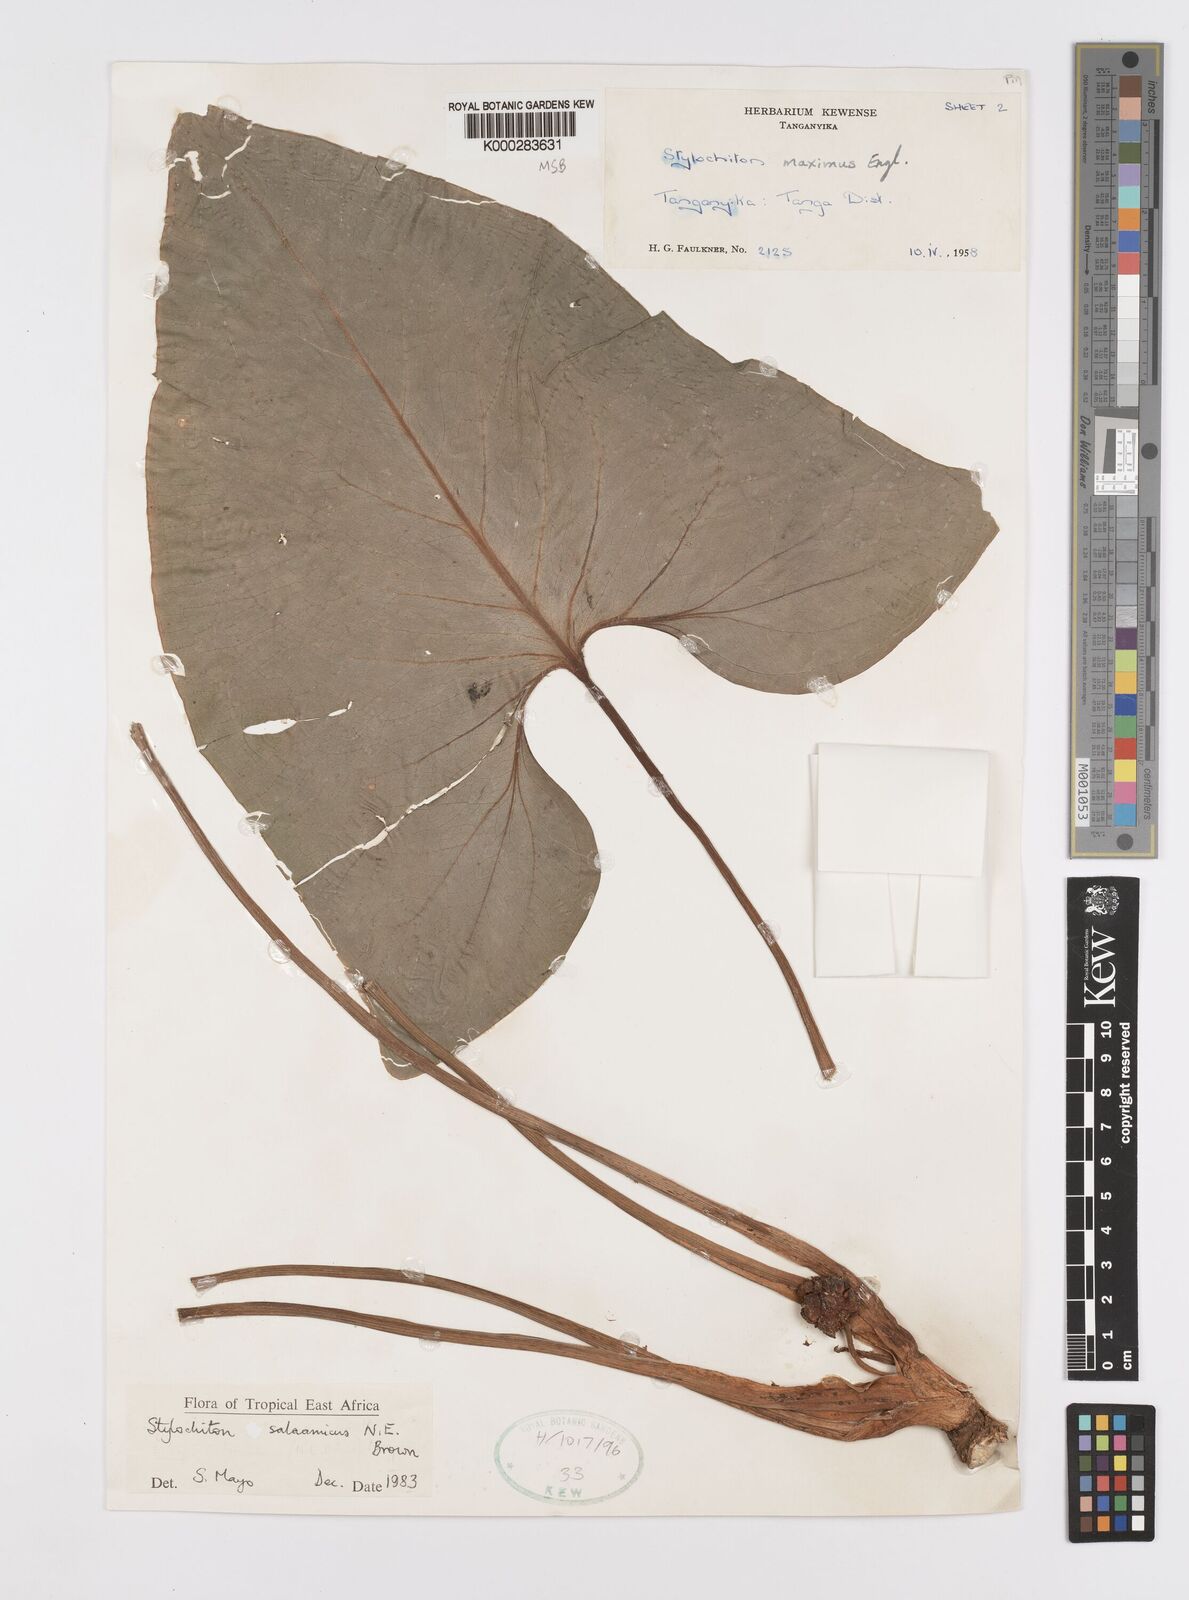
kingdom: Plantae
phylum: Tracheophyta
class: Liliopsida
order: Alismatales
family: Araceae
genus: Stylochaeton
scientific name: Stylochaeton salaamicum
